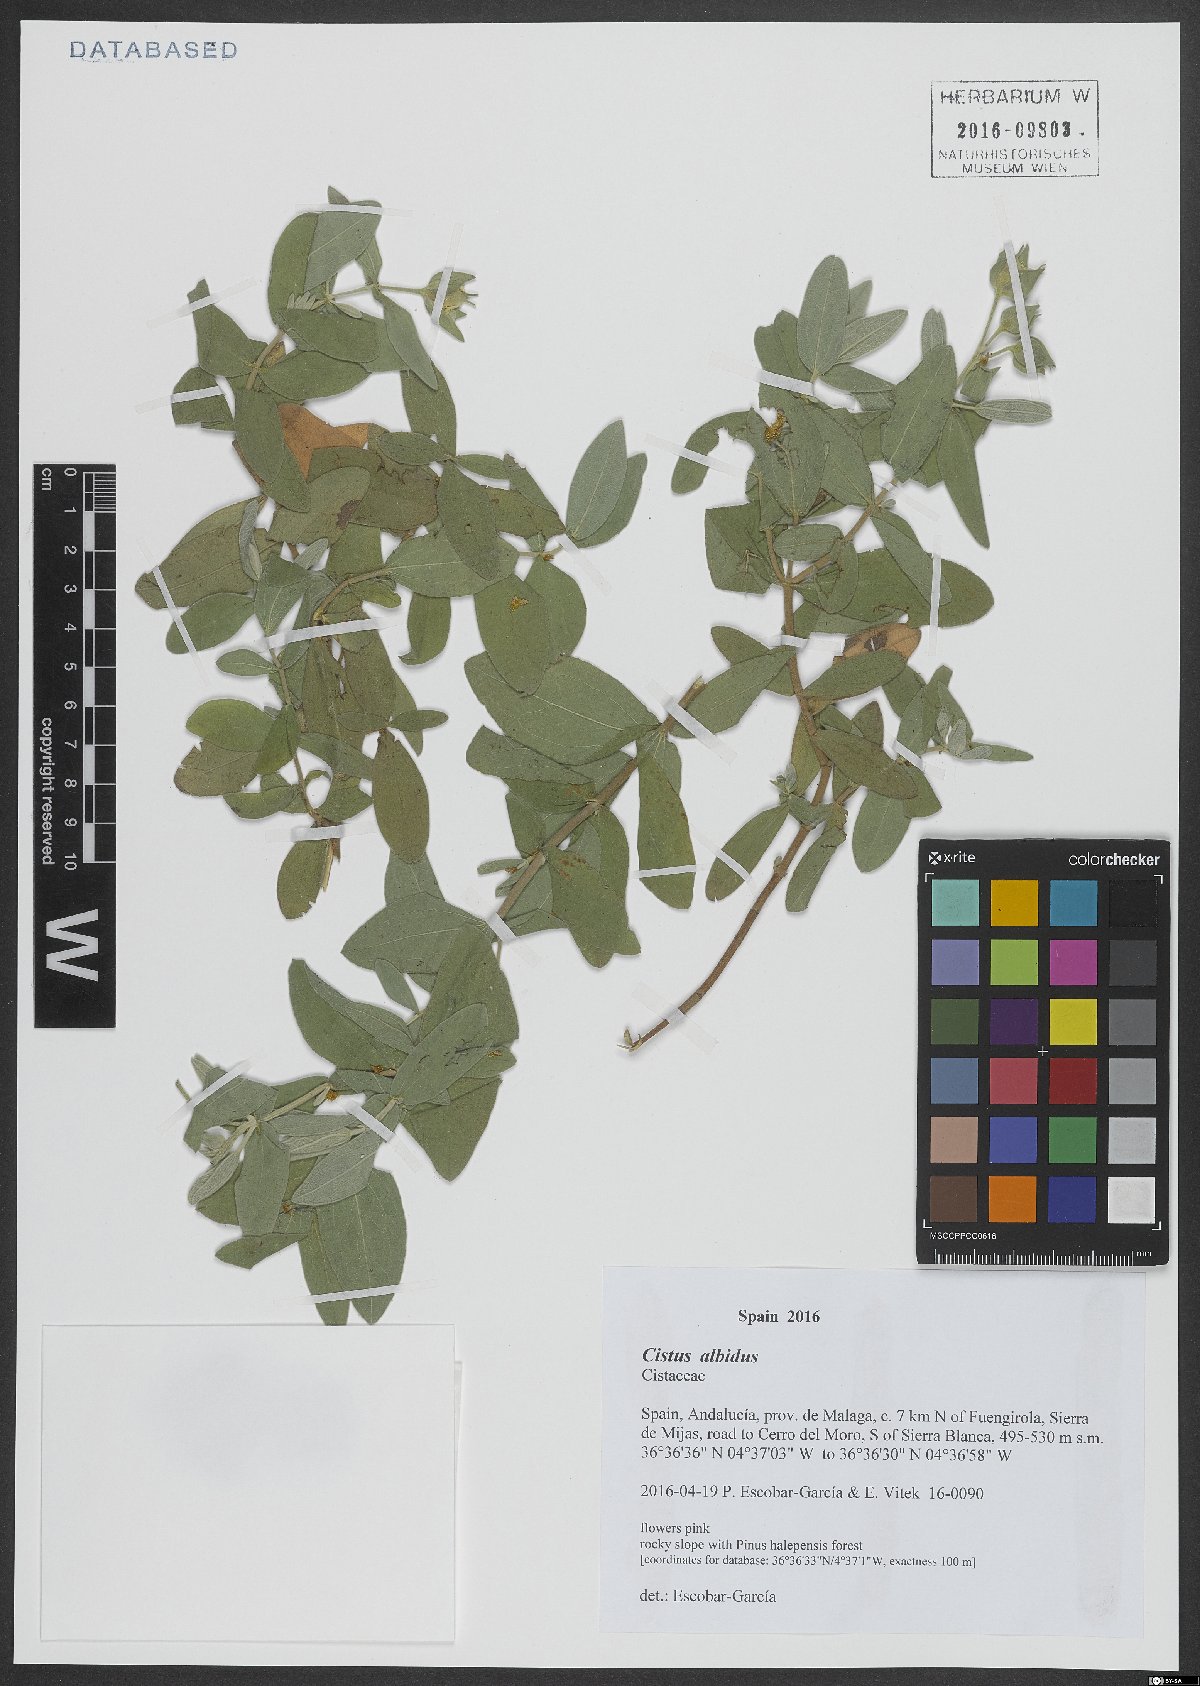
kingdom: Plantae
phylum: Tracheophyta
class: Magnoliopsida
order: Malvales
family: Cistaceae
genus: Cistus
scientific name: Cistus albidus
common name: White-leaf rock-rose
